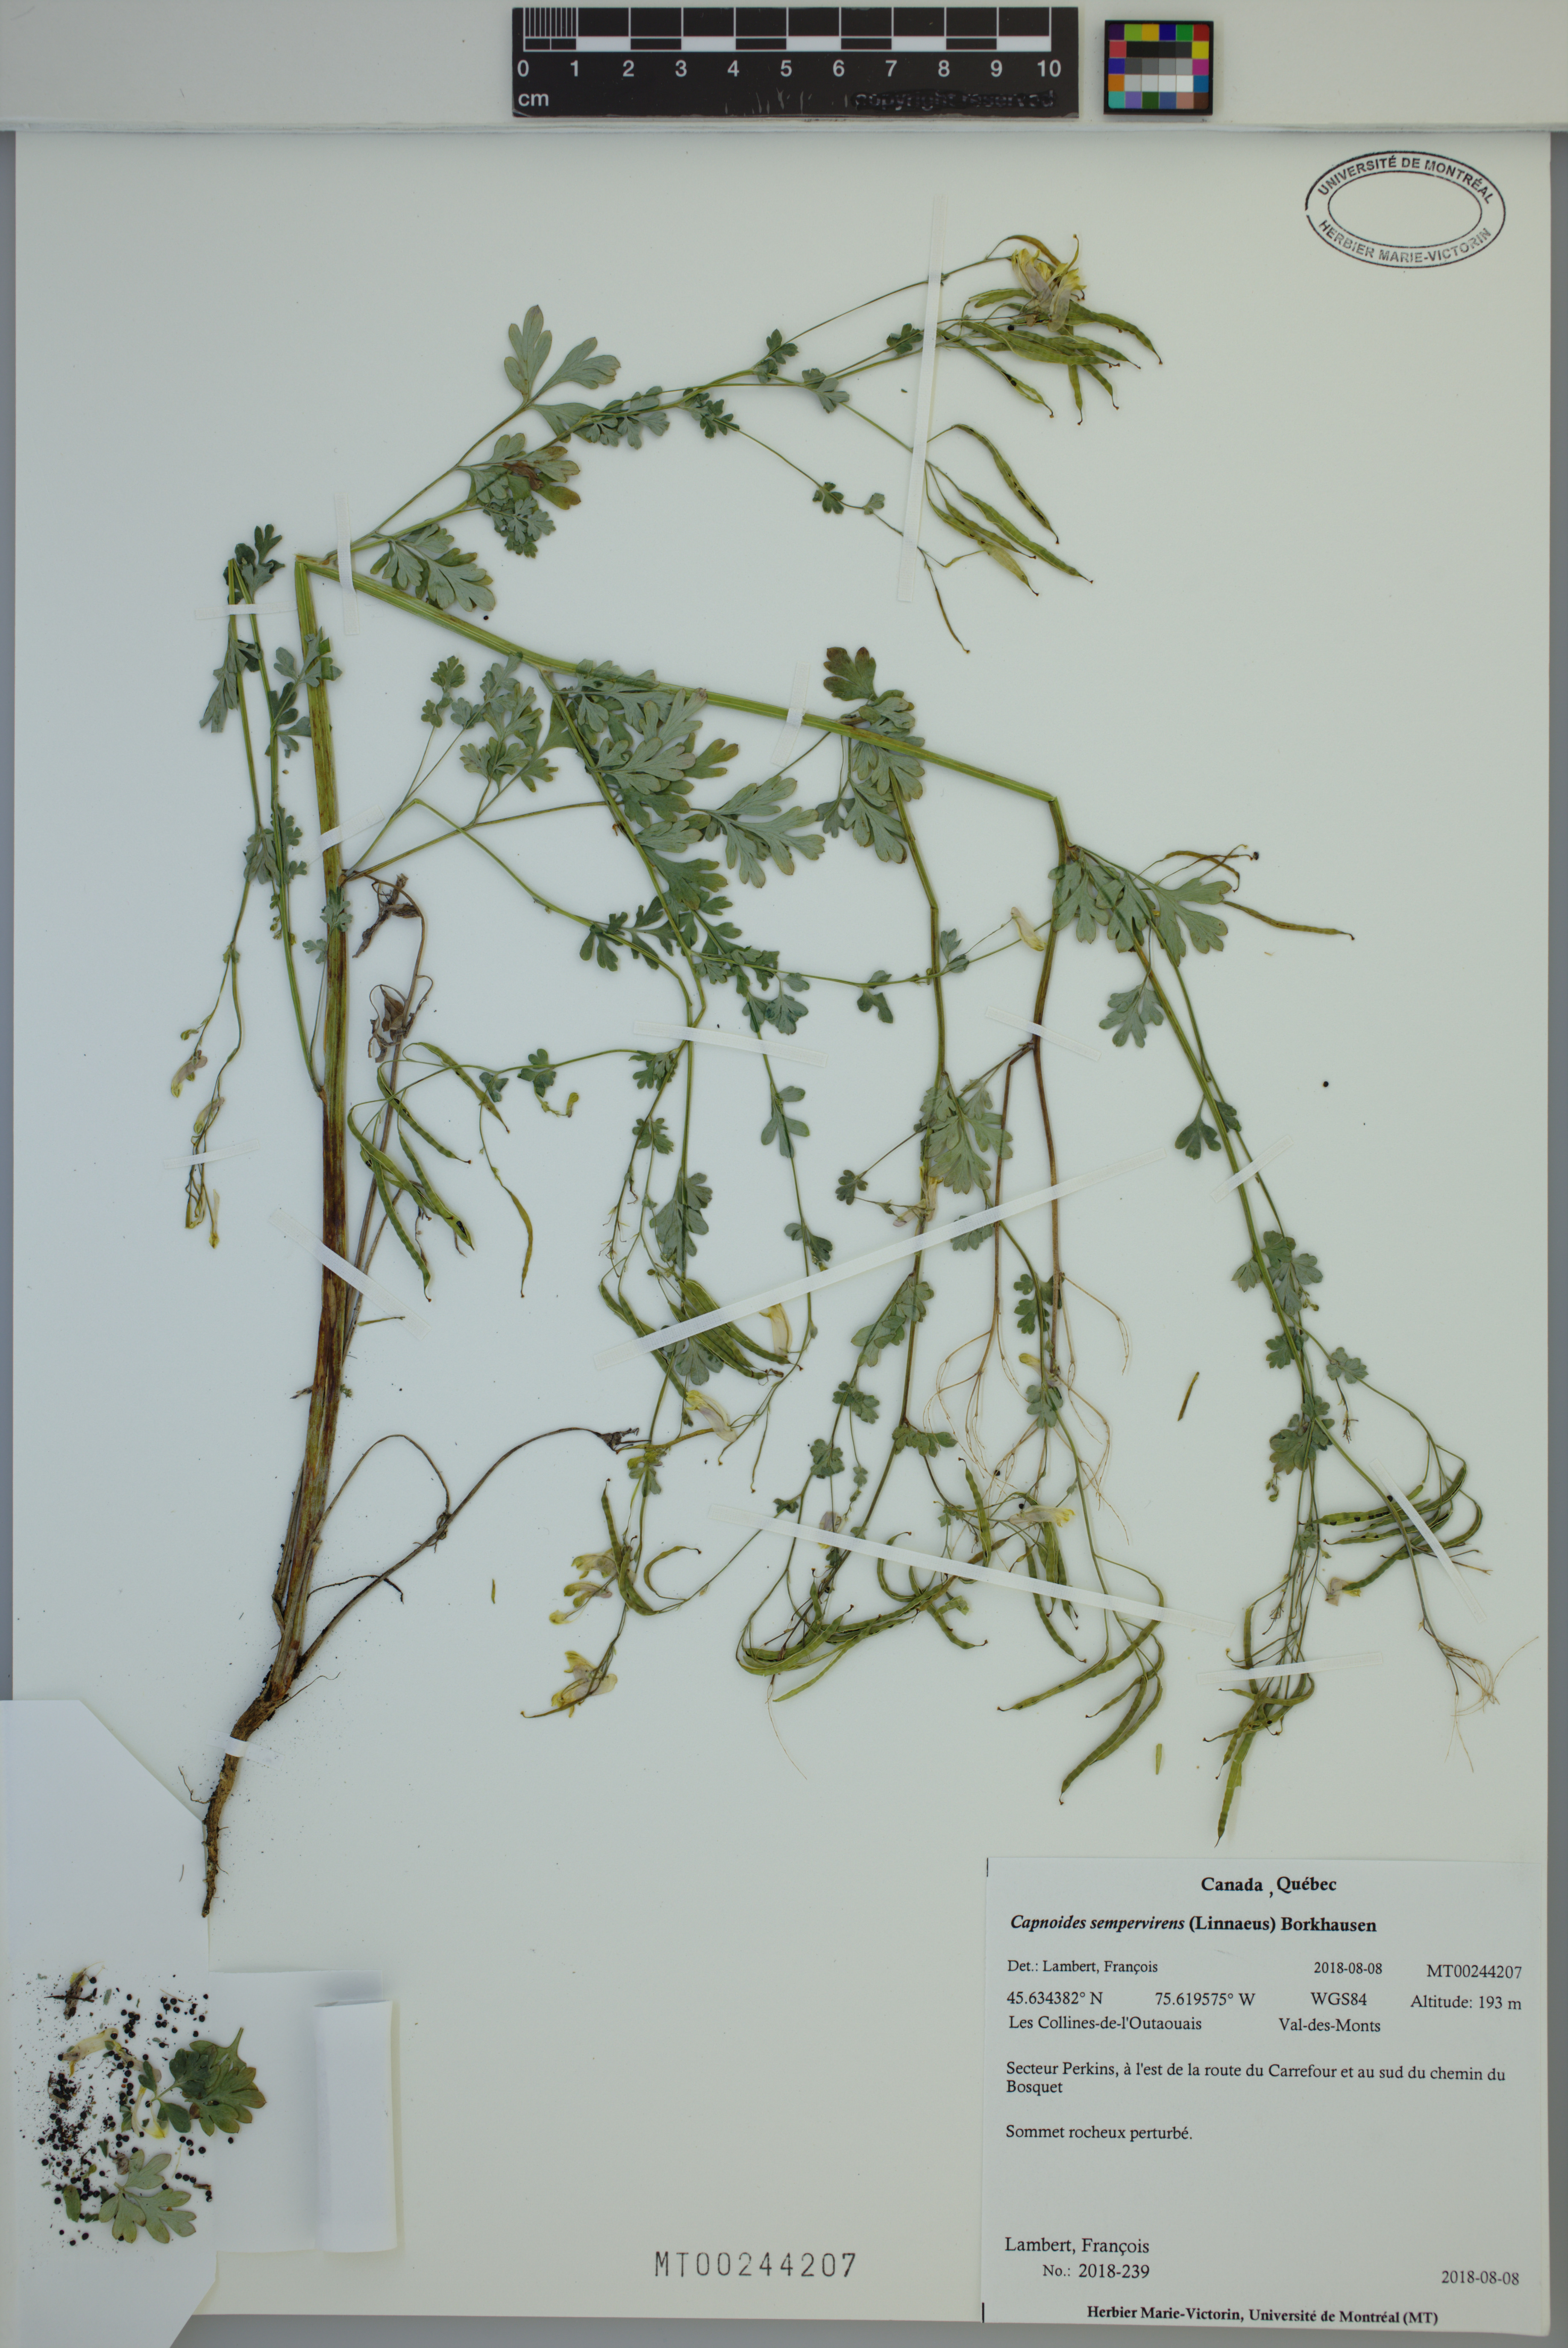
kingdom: Plantae
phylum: Tracheophyta
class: Magnoliopsida
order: Ranunculales
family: Papaveraceae
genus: Capnoides
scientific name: Capnoides sempervirens
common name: Rock harlequin
